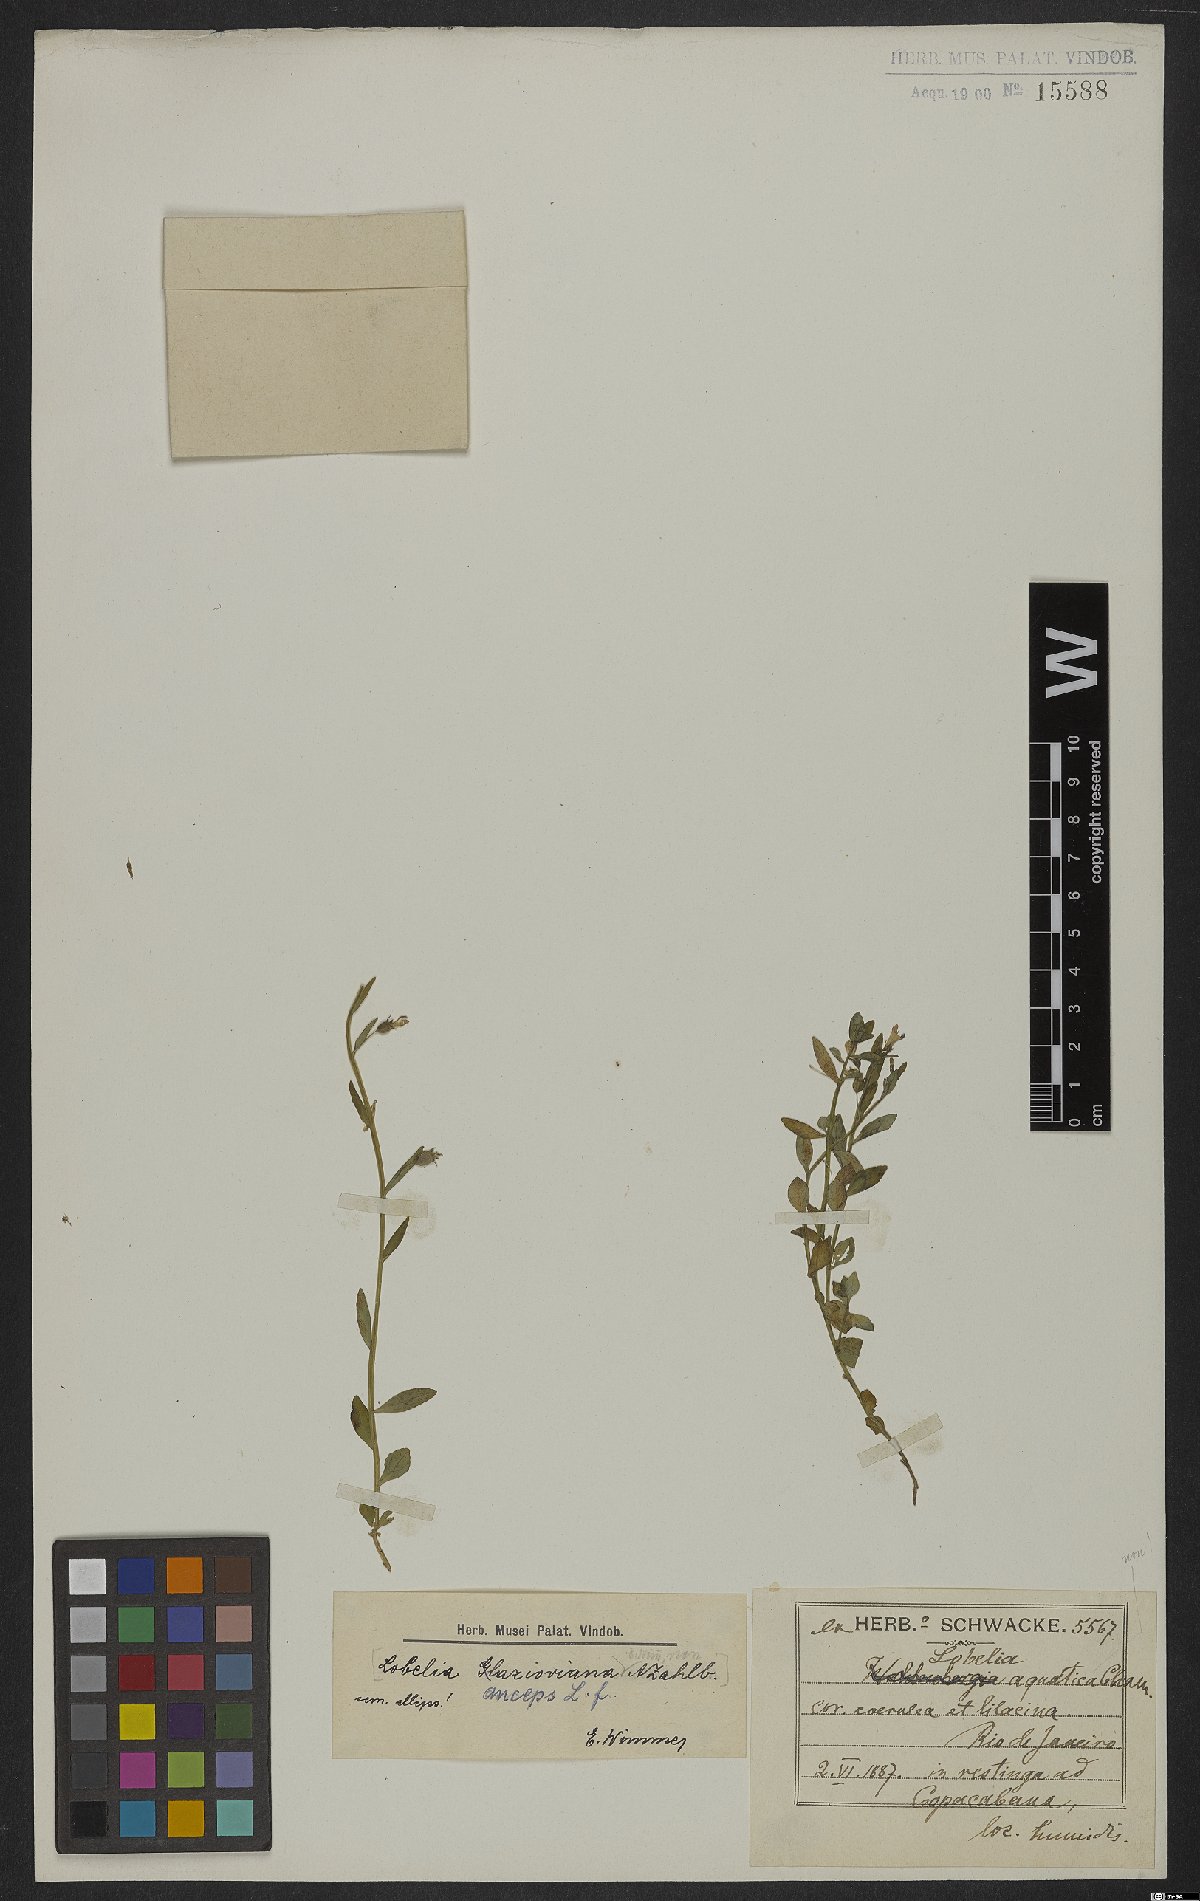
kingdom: Plantae
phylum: Tracheophyta
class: Magnoliopsida
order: Asterales
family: Campanulaceae
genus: Lobelia
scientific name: Lobelia anceps
